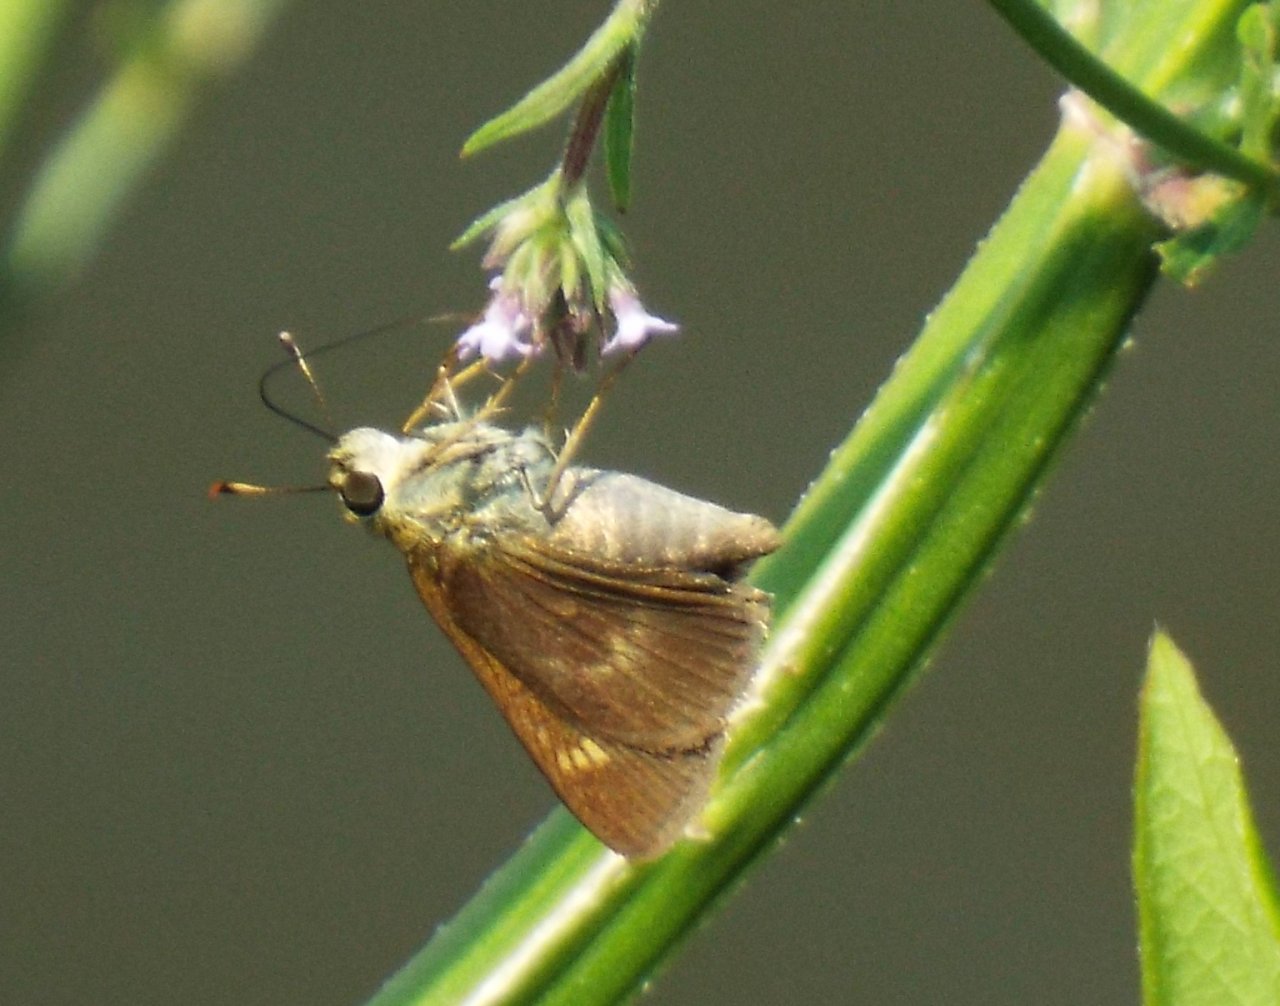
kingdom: Animalia
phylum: Arthropoda
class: Insecta
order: Lepidoptera
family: Hesperiidae
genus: Polites
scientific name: Polites egeremet
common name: Northern Broken-Dash
